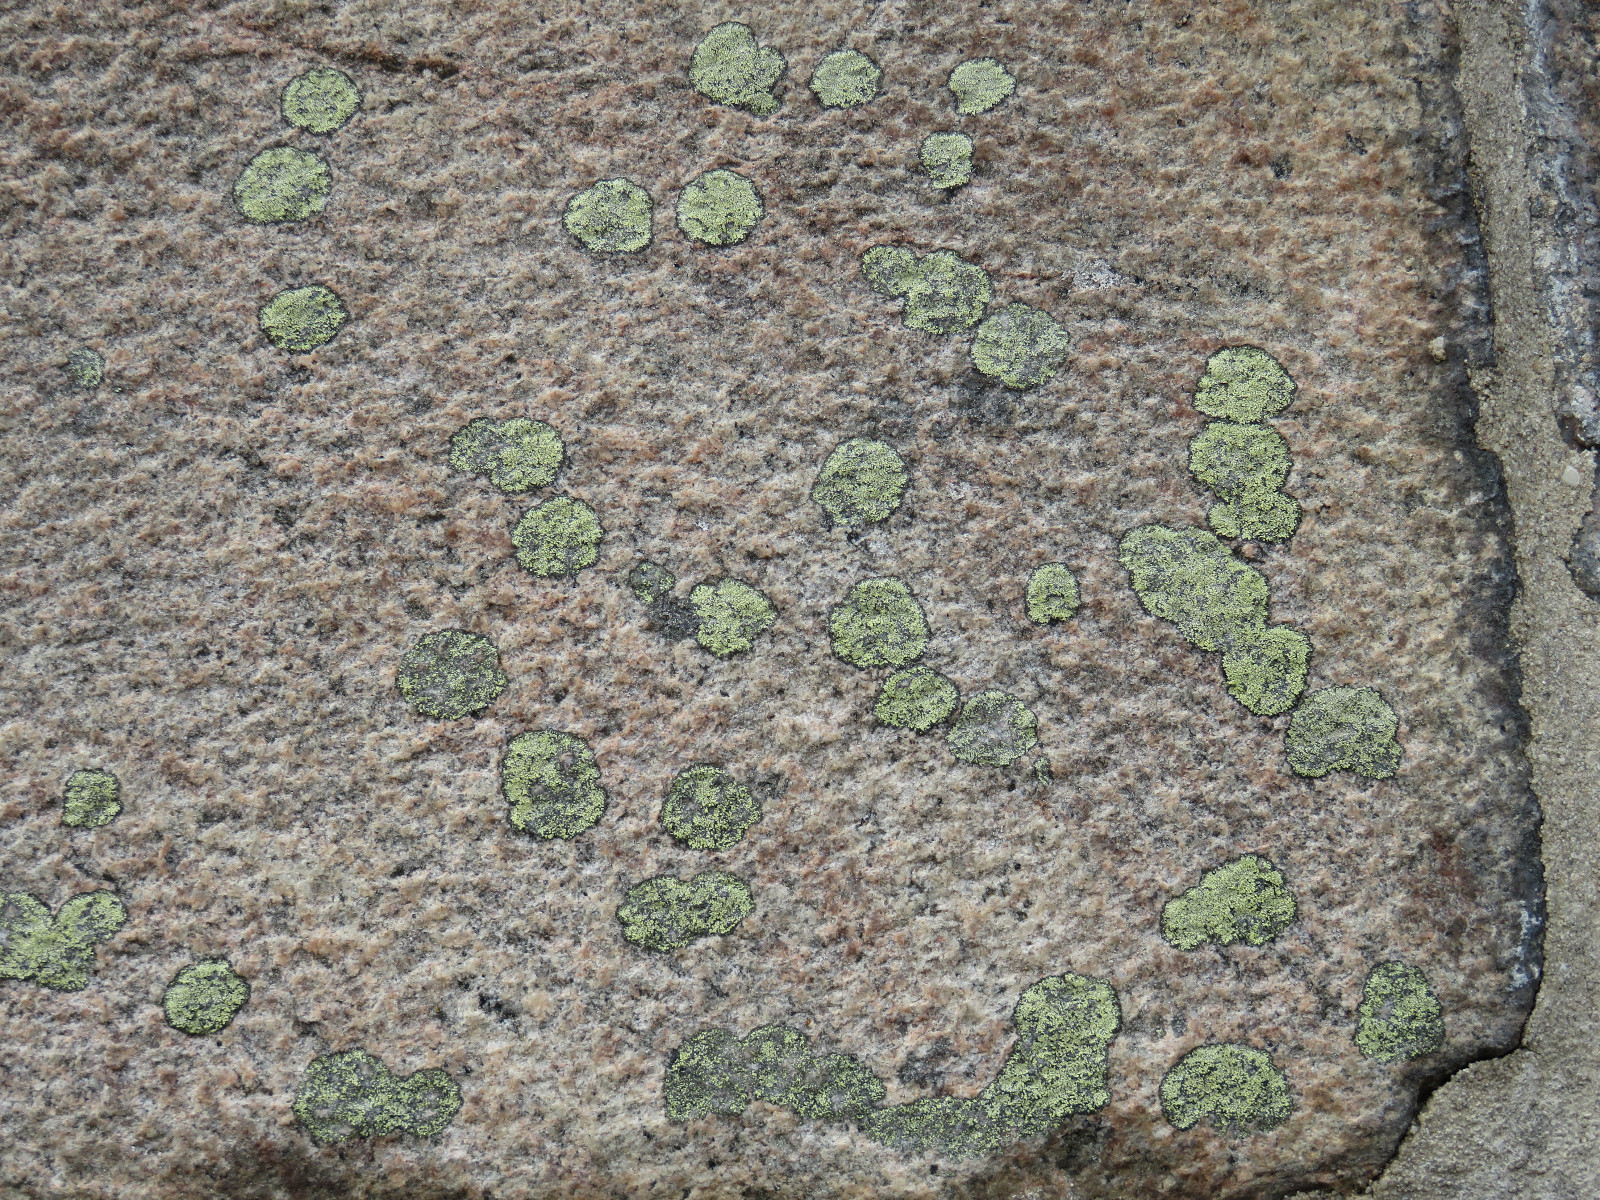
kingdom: Fungi
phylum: Ascomycota
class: Lecanoromycetes
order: Rhizocarpales
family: Rhizocarpaceae
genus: Rhizocarpon
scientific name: Rhizocarpon geographicum
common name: gulgrøn landkortlav
